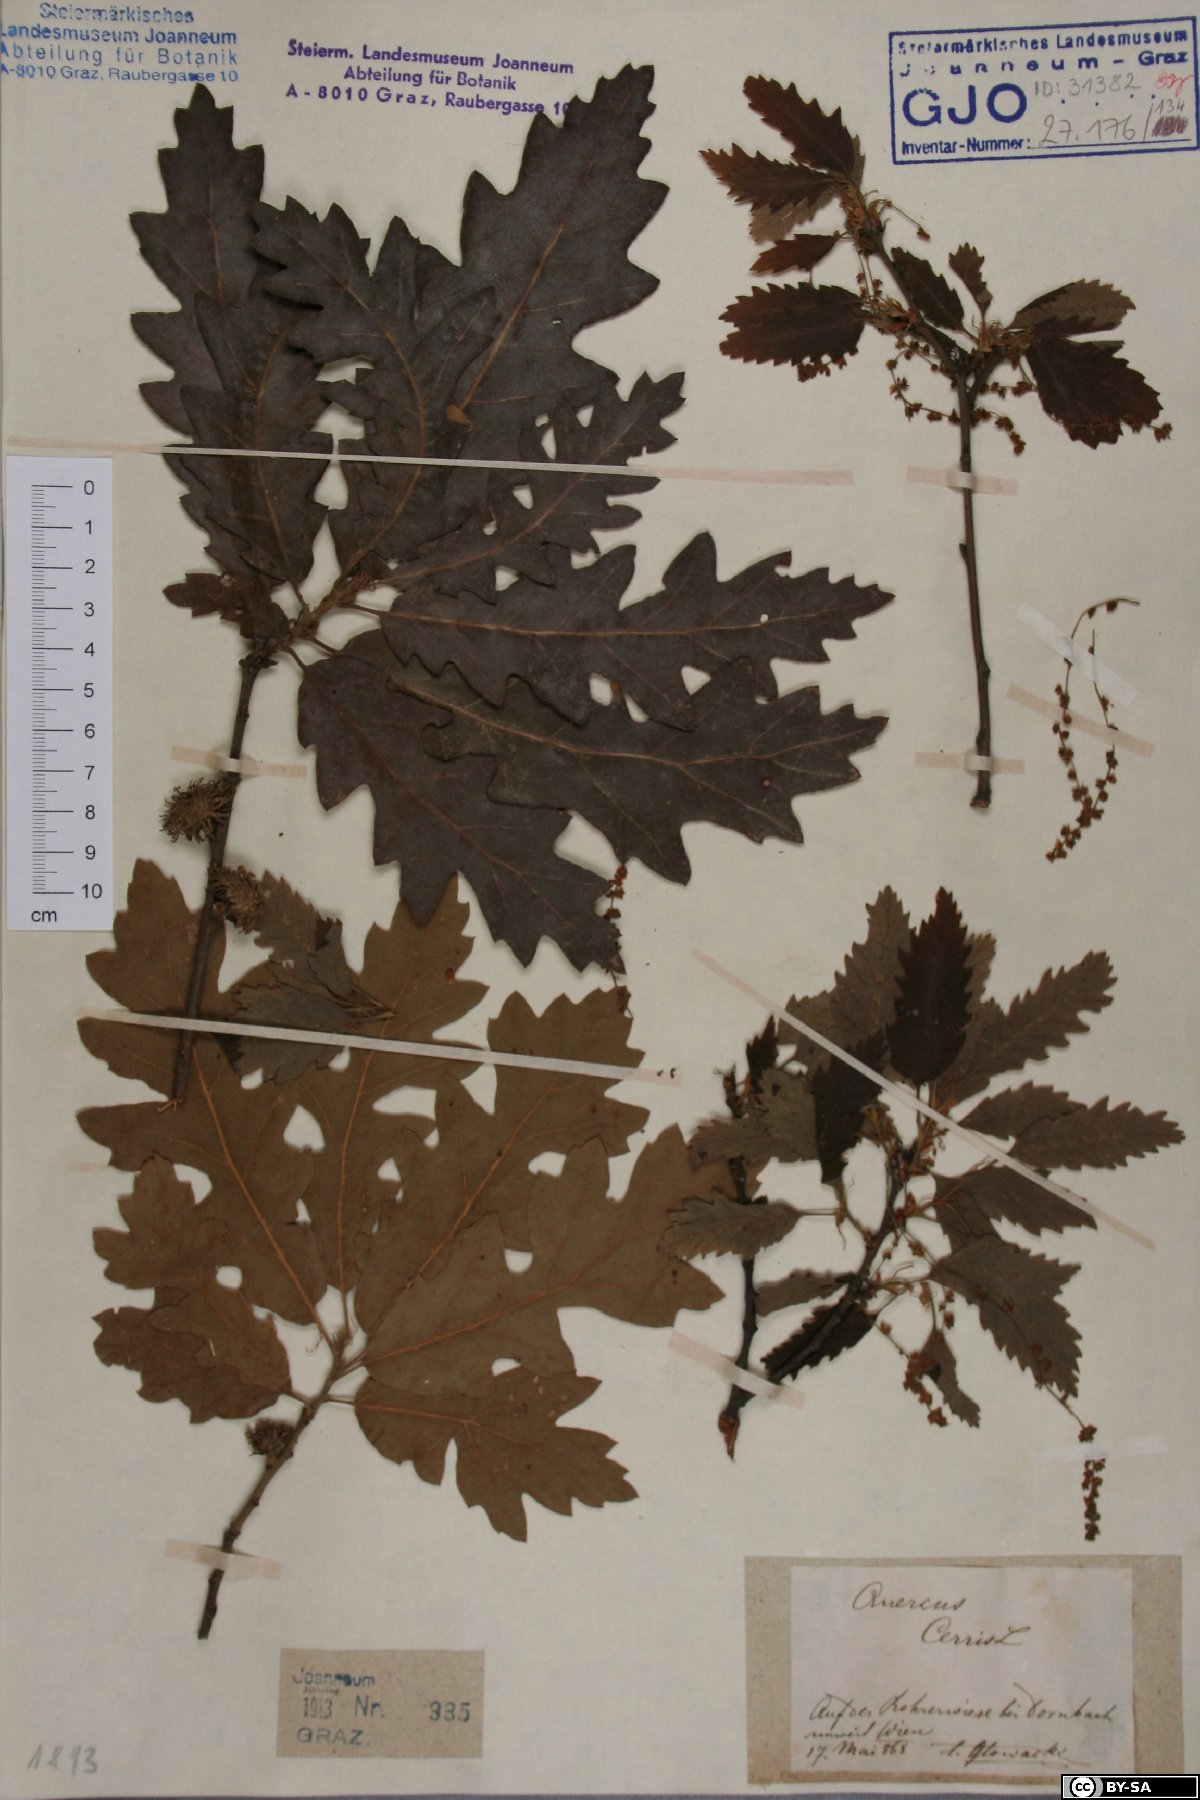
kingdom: Plantae
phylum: Tracheophyta
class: Magnoliopsida
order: Fagales
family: Fagaceae
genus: Quercus
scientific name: Quercus cerris
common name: Turkey oak
